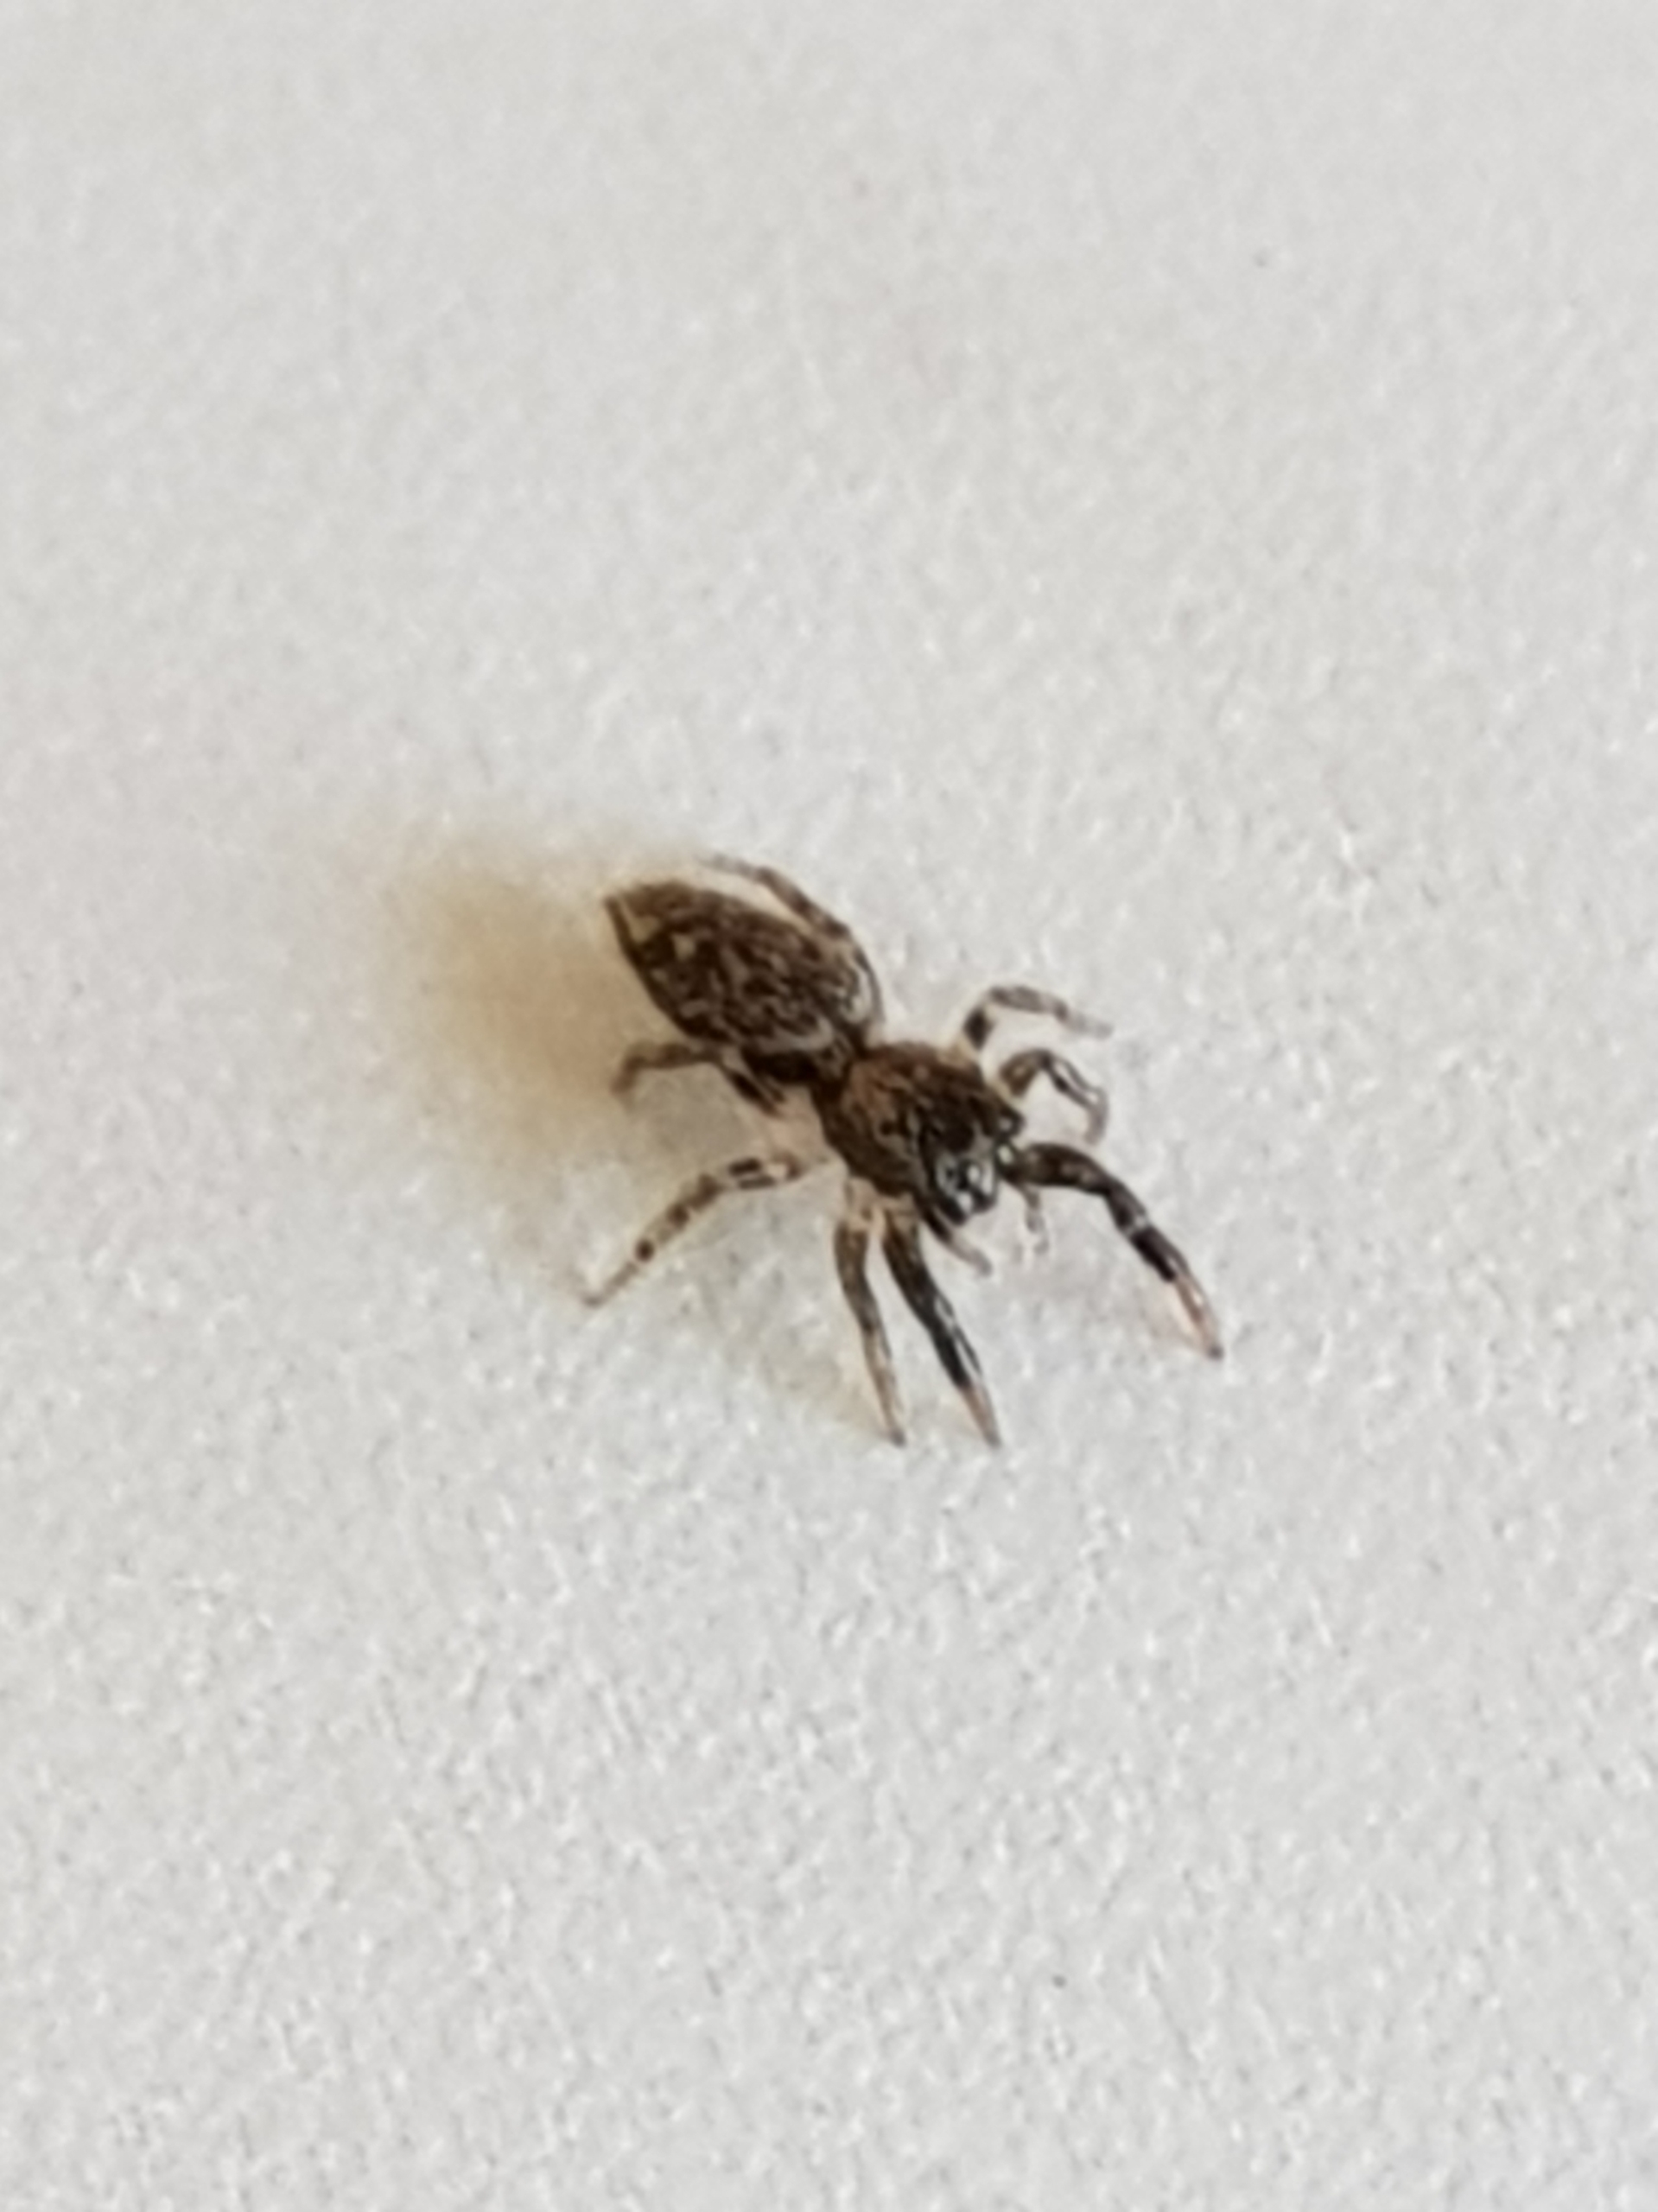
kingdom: Animalia
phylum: Arthropoda
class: Arachnida
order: Araneae
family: Salticidae
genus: Marpissa
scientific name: Marpissa muscosa
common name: Stor springedderkop
